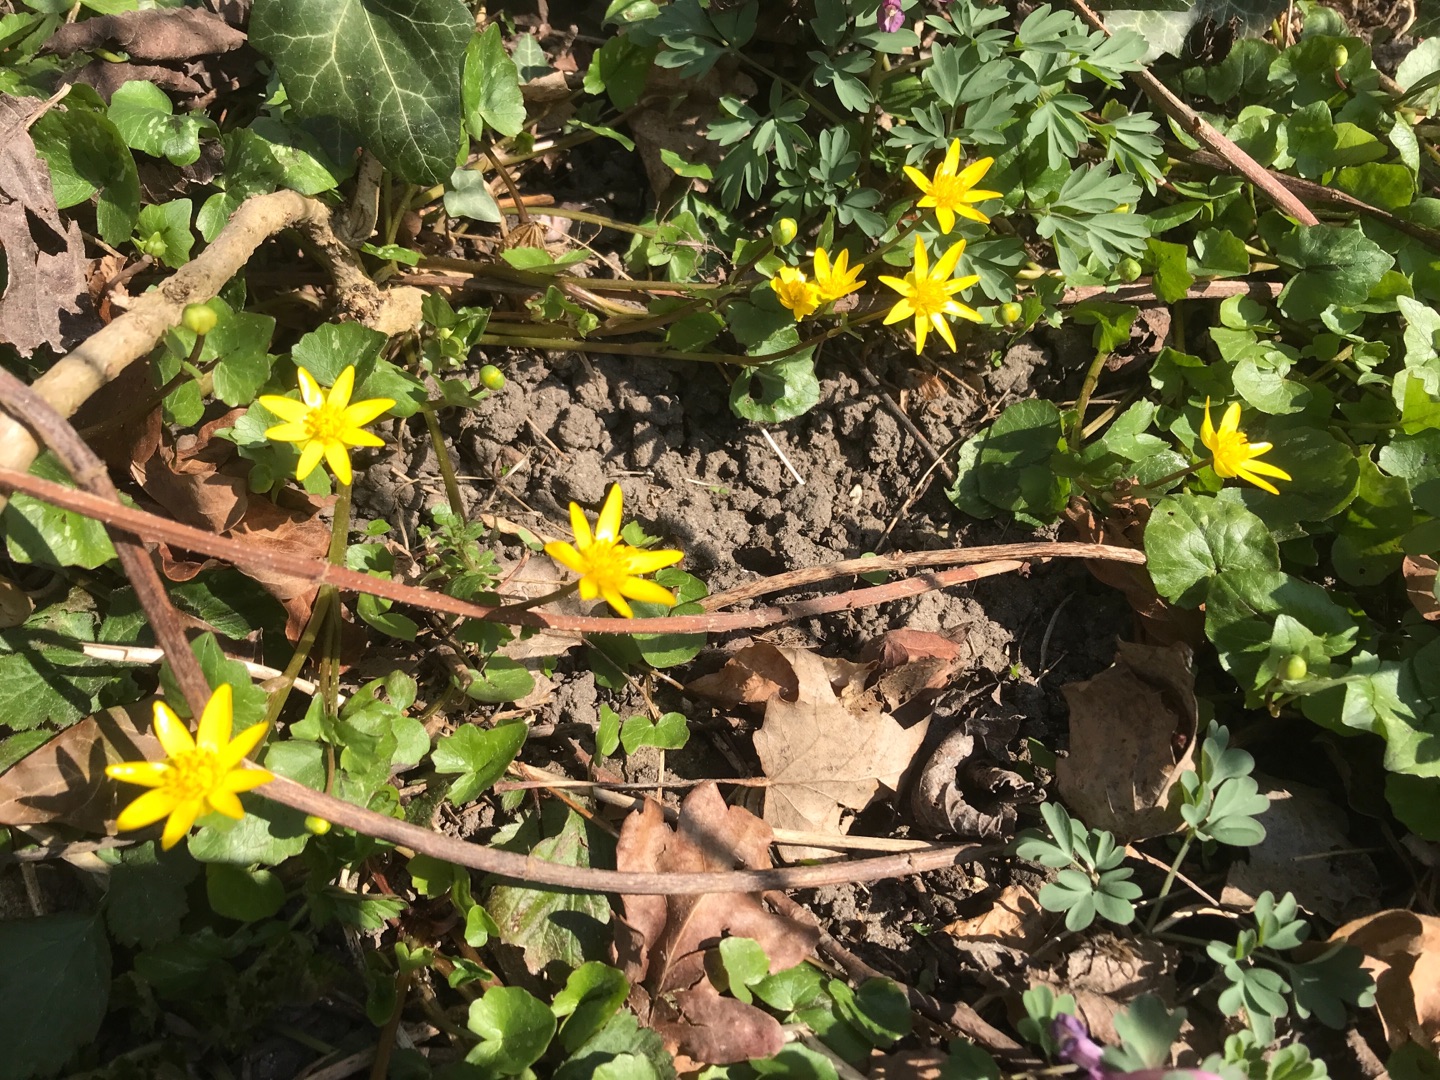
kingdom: Plantae
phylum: Tracheophyta
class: Magnoliopsida
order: Ranunculales
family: Ranunculaceae
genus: Ficaria
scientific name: Ficaria verna
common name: Vorterod
